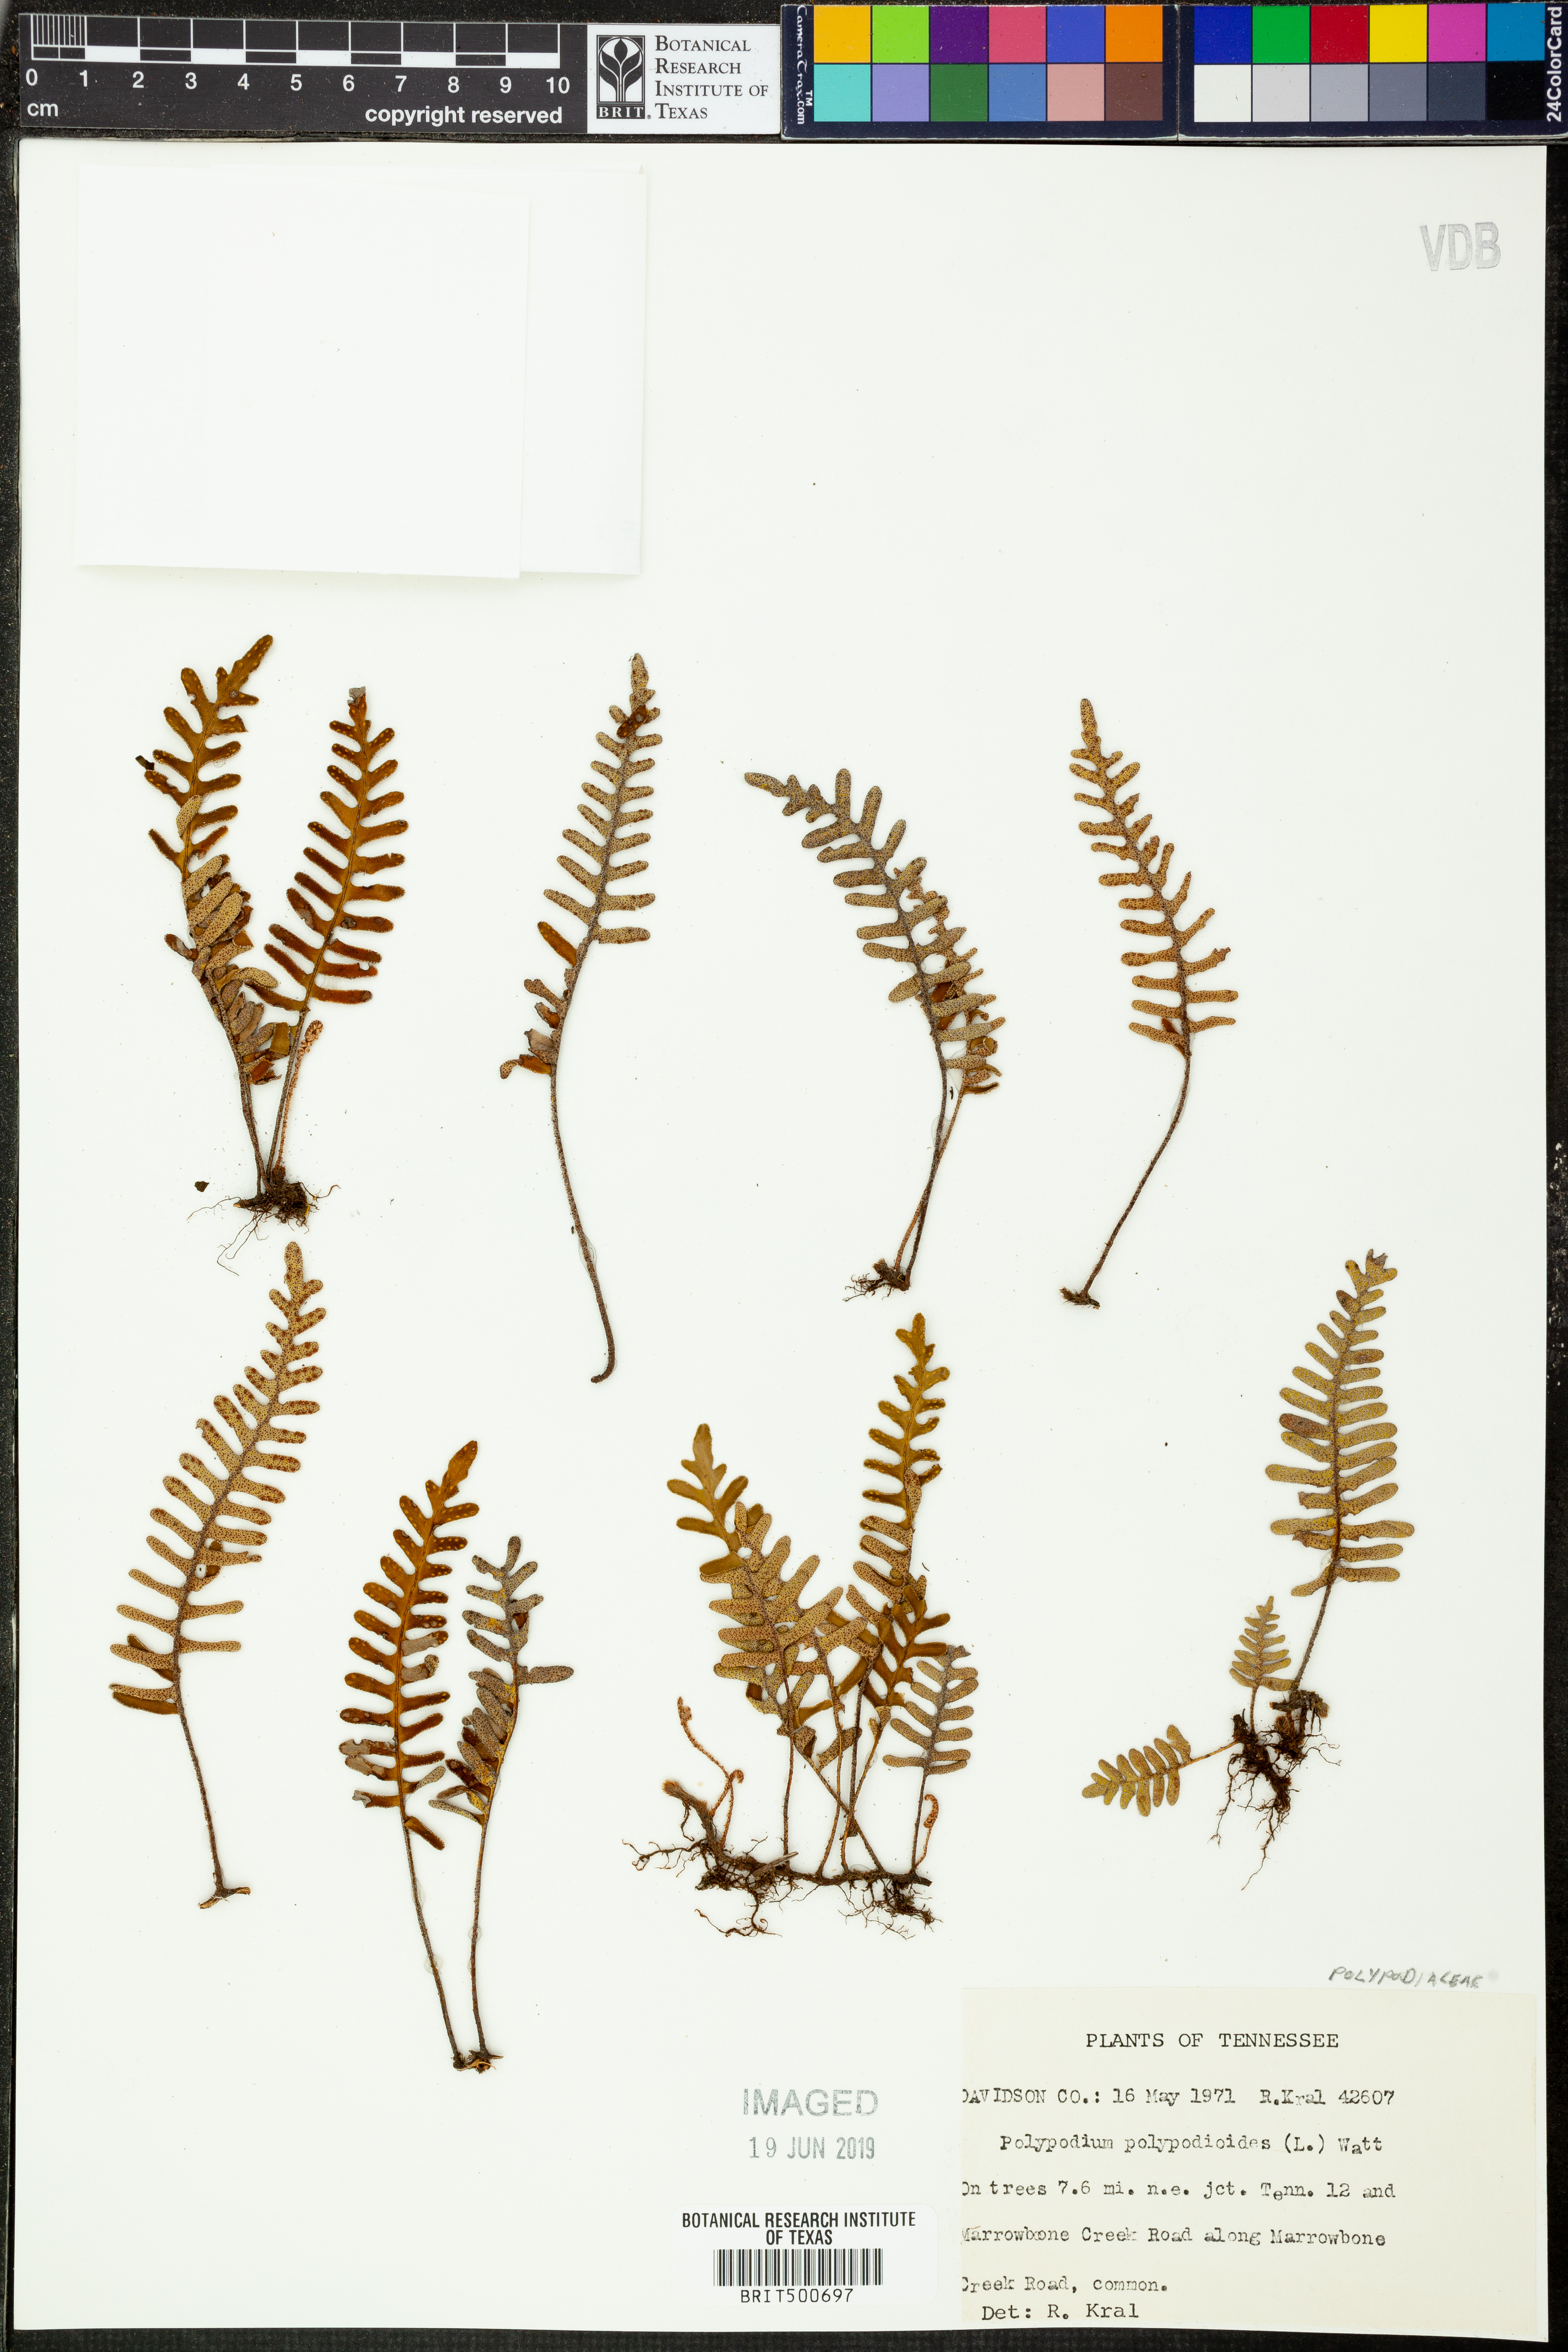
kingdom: Plantae
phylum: Tracheophyta
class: Polypodiopsida
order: Polypodiales
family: Polypodiaceae
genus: Pleopeltis
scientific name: Pleopeltis polypodioides
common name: Resurrection fern
